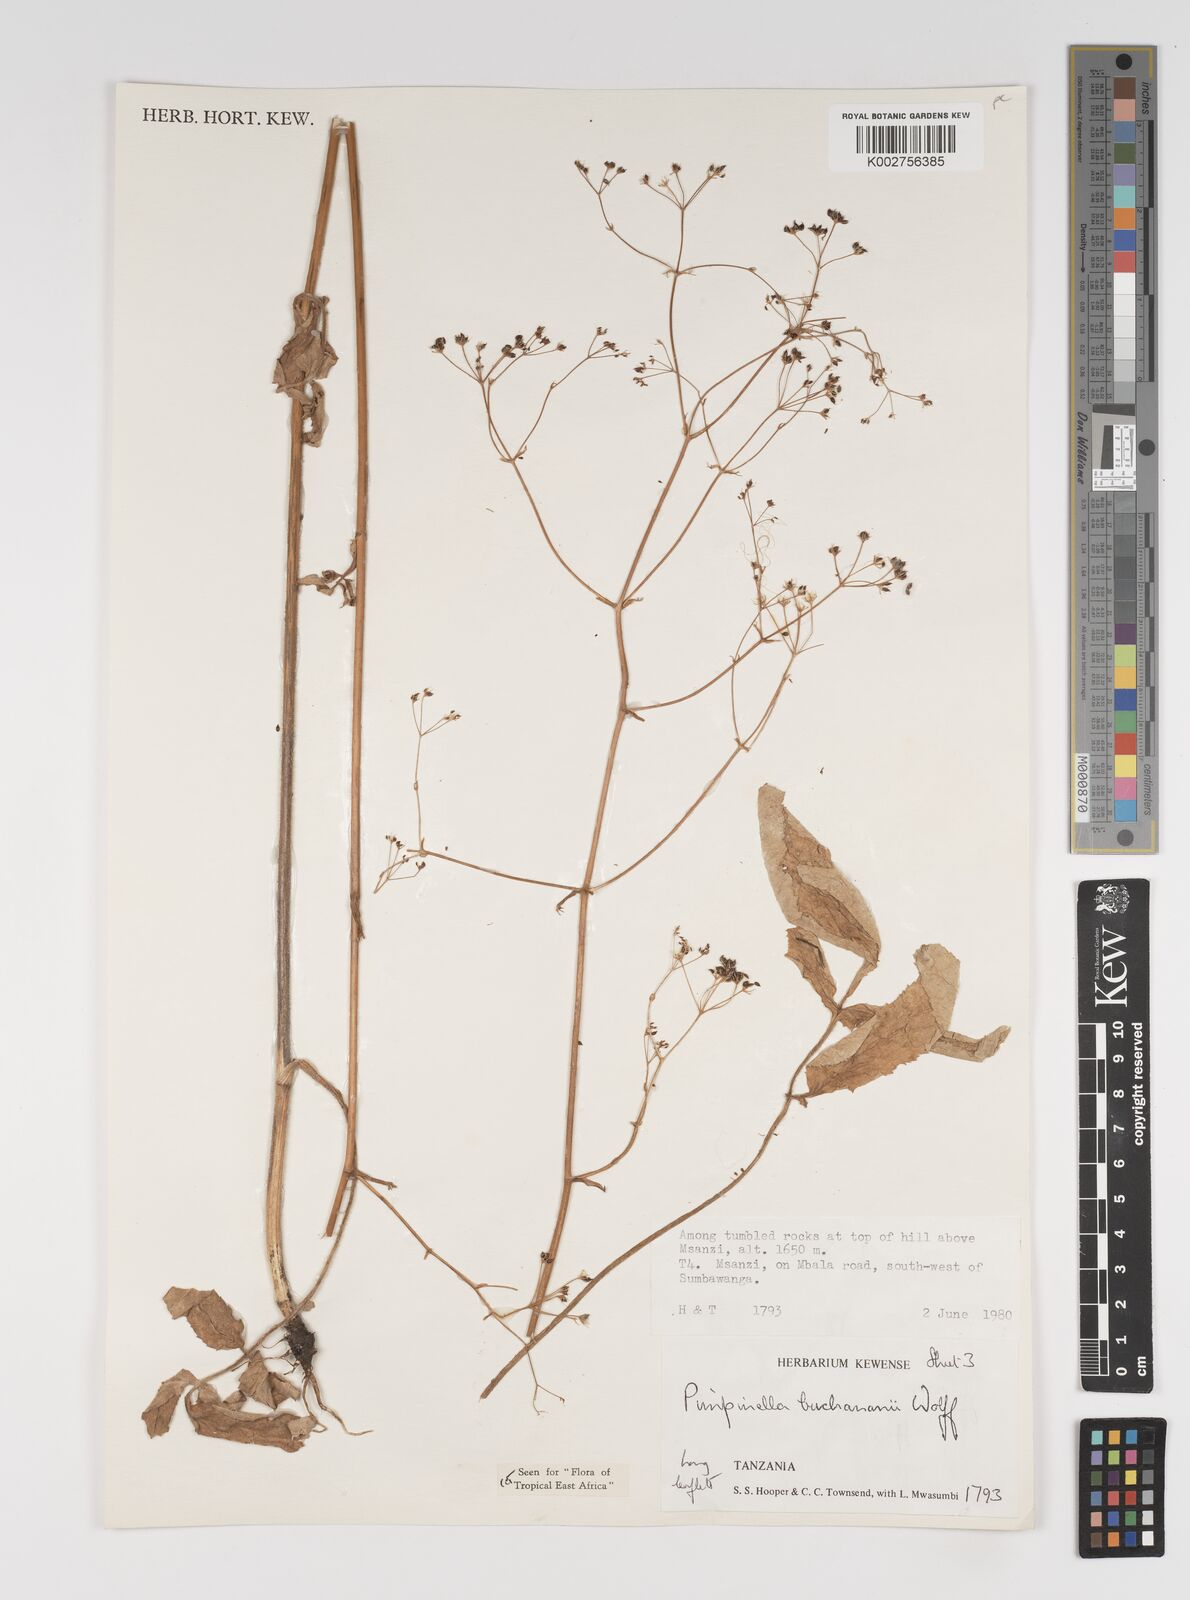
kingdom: Plantae
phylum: Tracheophyta
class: Magnoliopsida
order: Apiales
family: Apiaceae
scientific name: Apiaceae
